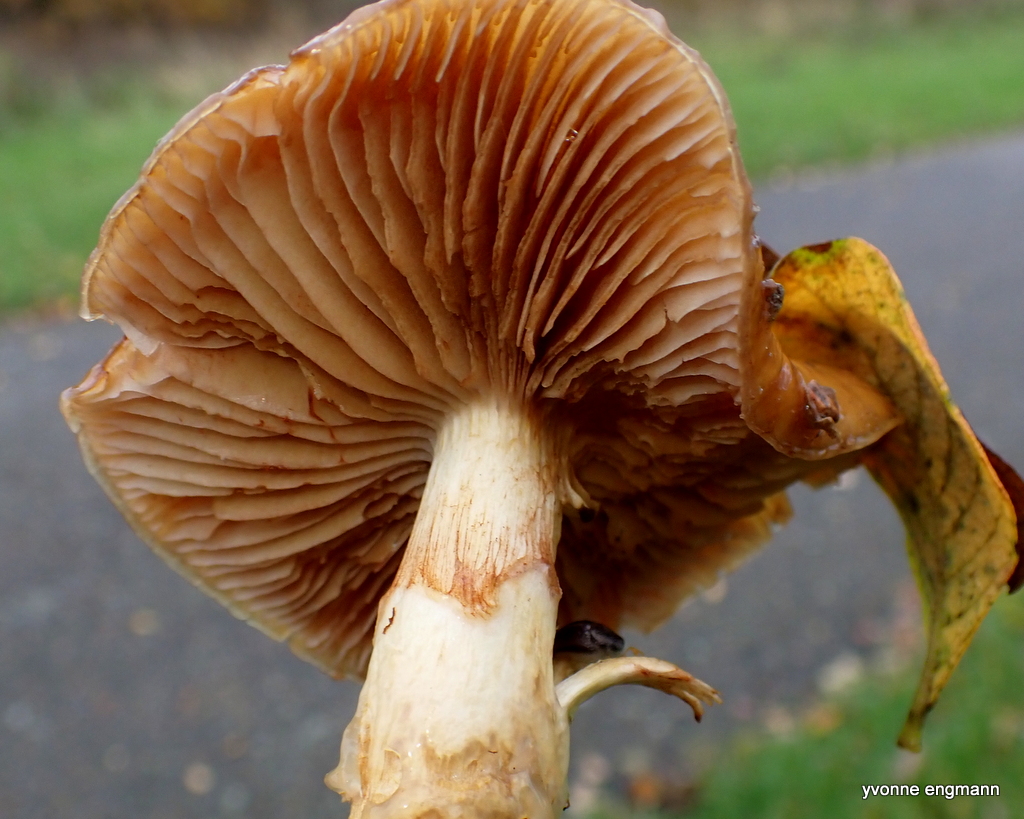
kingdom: Fungi
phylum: Basidiomycota
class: Agaricomycetes
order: Agaricales
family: Cortinariaceae
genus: Cortinarius
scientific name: Cortinarius trivialis
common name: Girdled webcap
